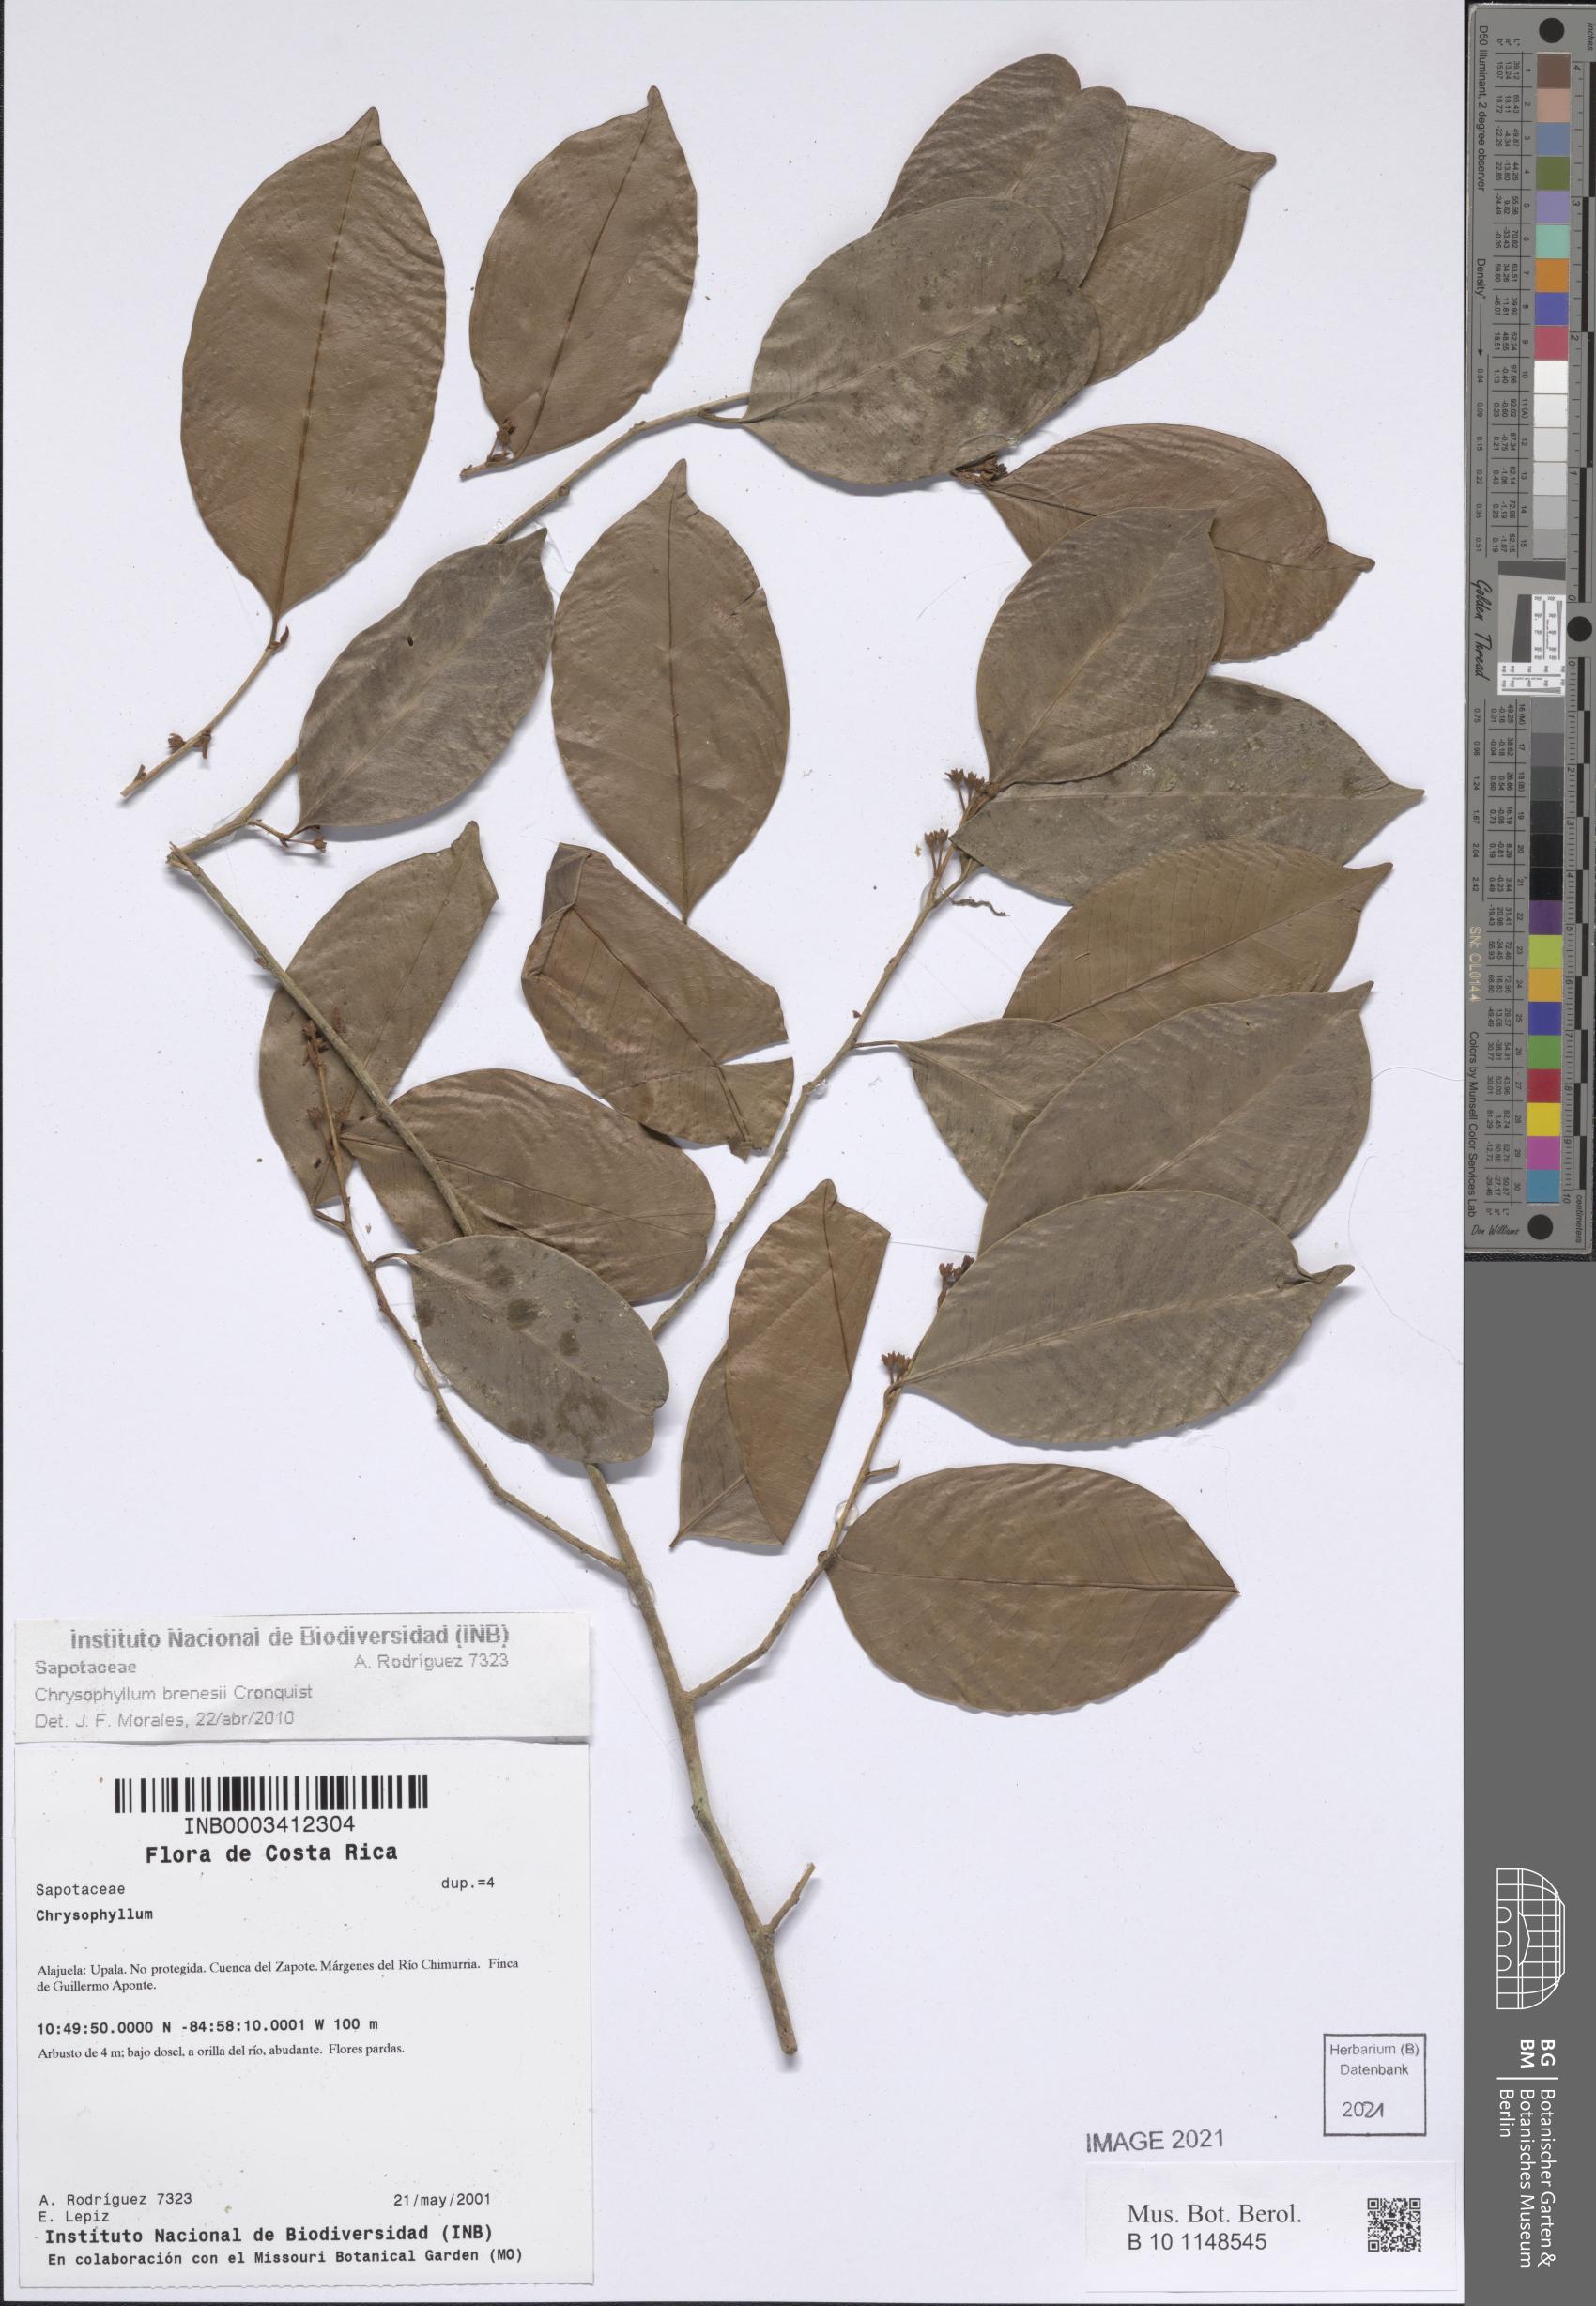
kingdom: Plantae
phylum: Tracheophyta
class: Magnoliopsida
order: Ericales
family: Sapotaceae
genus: Chrysophyllum
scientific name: Chrysophyllum brenesii
